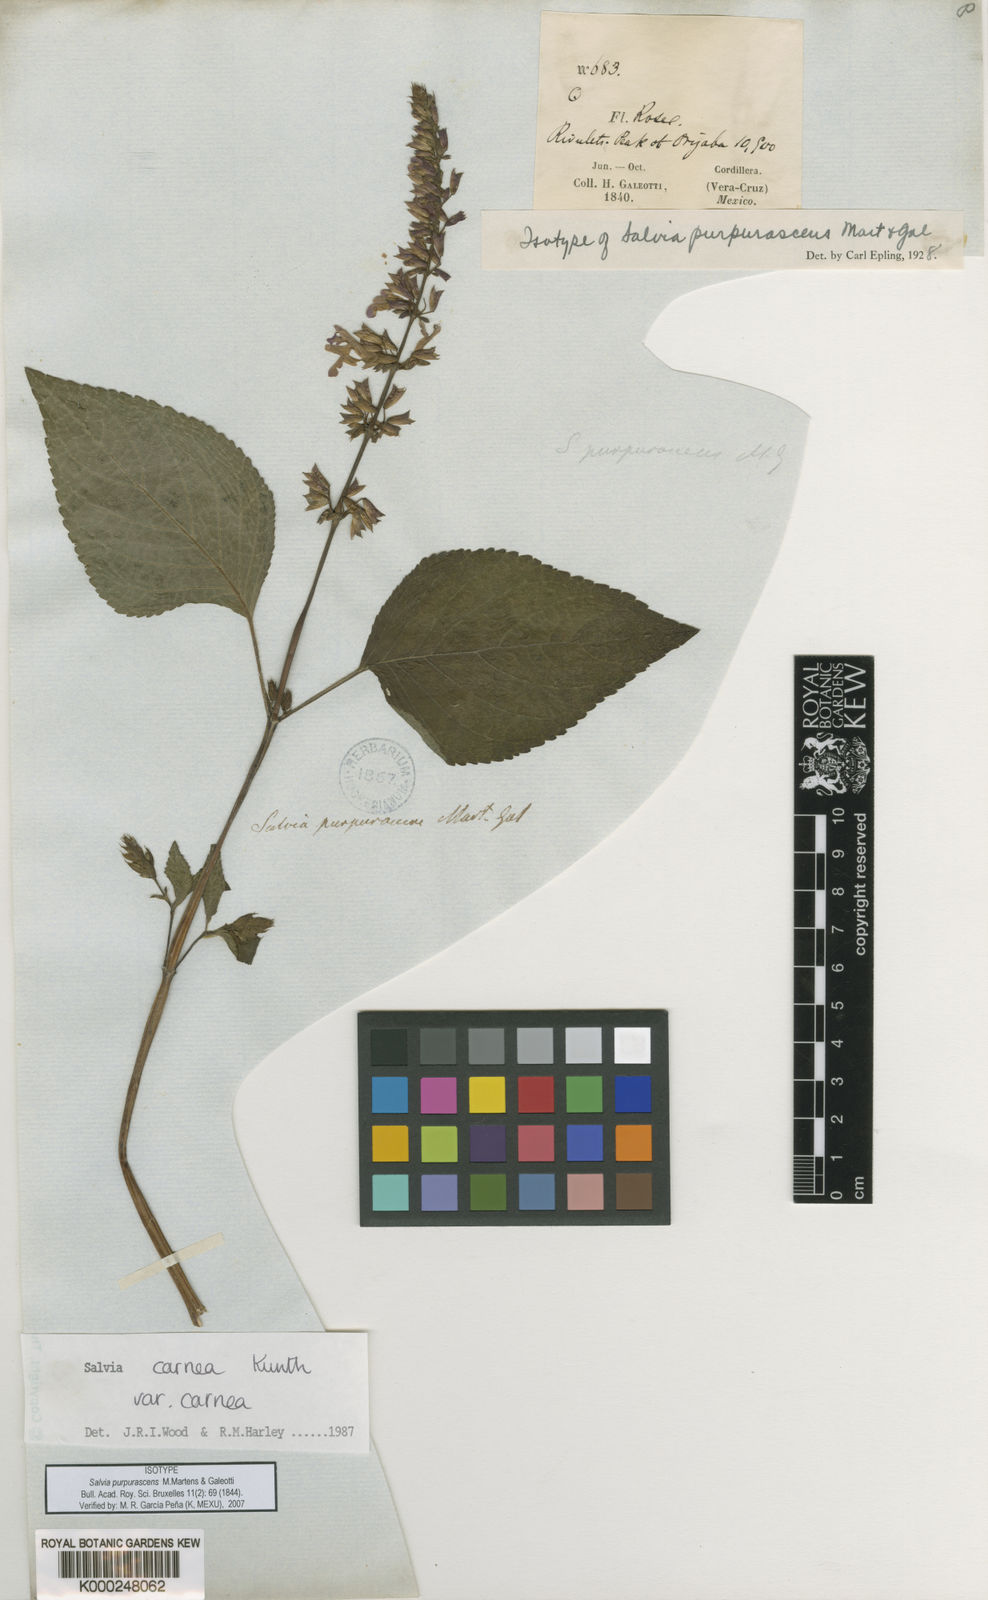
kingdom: Plantae
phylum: Tracheophyta
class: Magnoliopsida
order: Lamiales
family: Lamiaceae
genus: Salvia
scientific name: Salvia carnea
